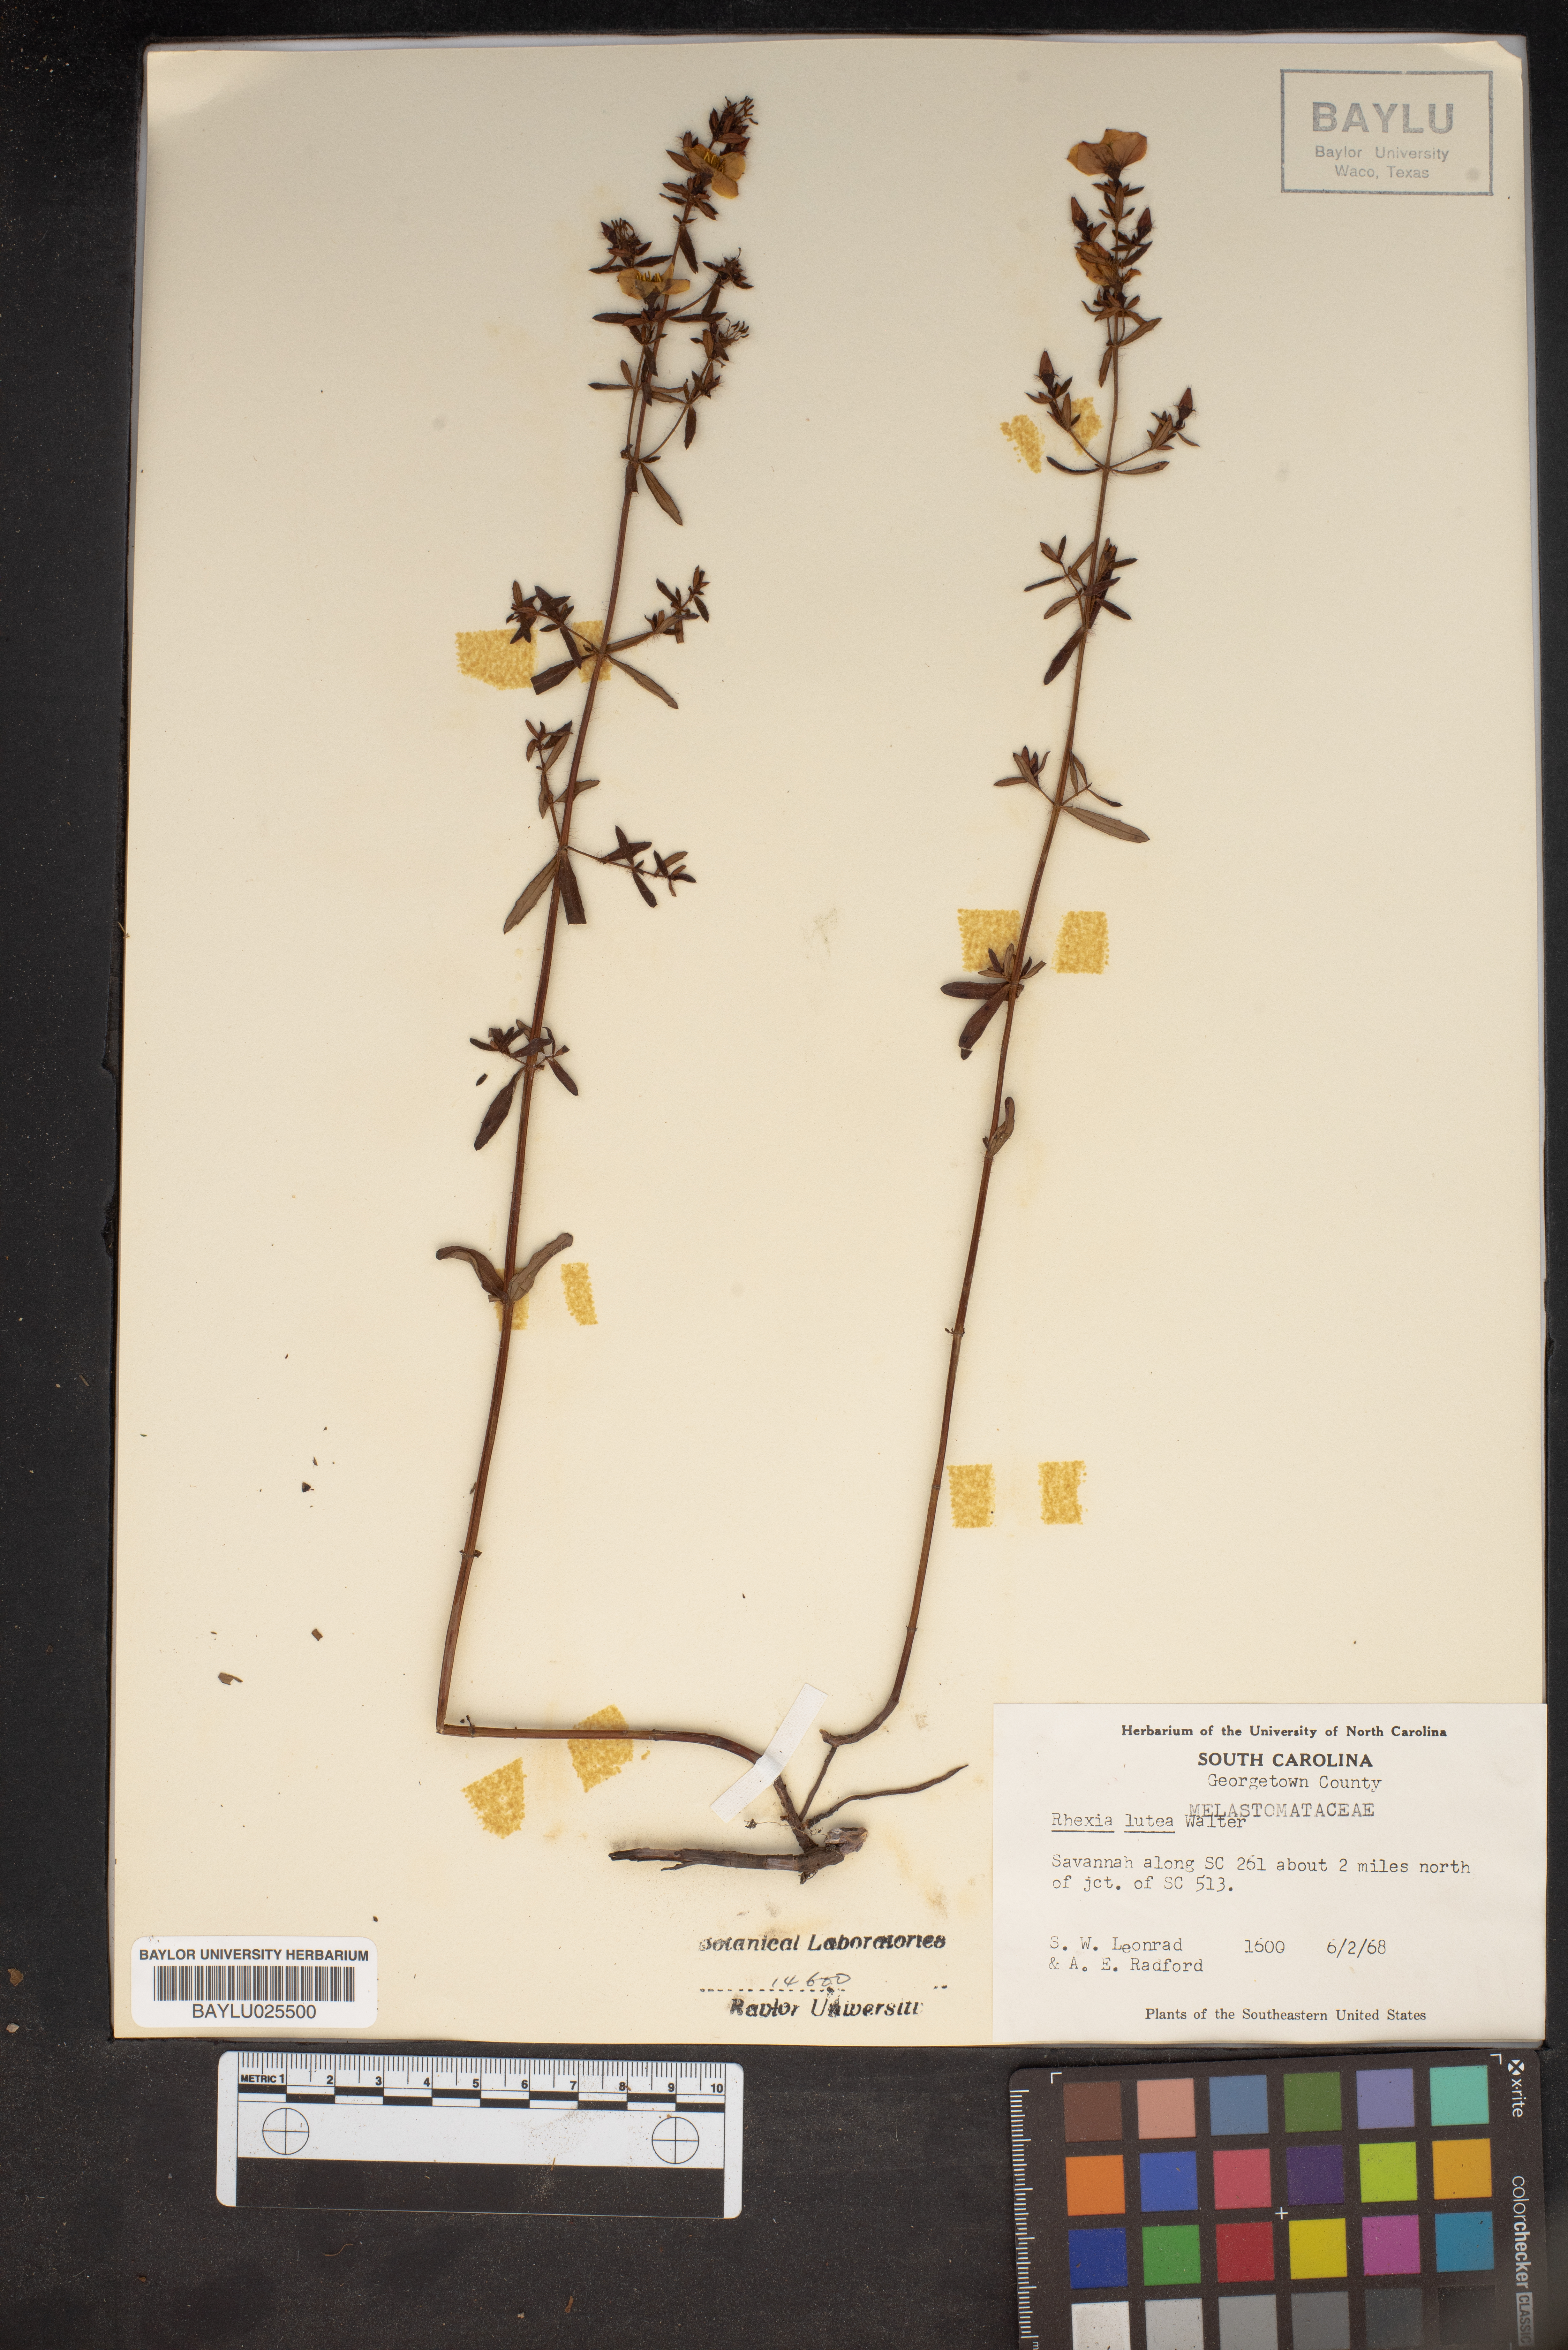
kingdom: Plantae
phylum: Tracheophyta
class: Magnoliopsida
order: Myrtales
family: Melastomataceae
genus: Rhexia
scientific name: Rhexia lutea
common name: Golden meadow-beauty
